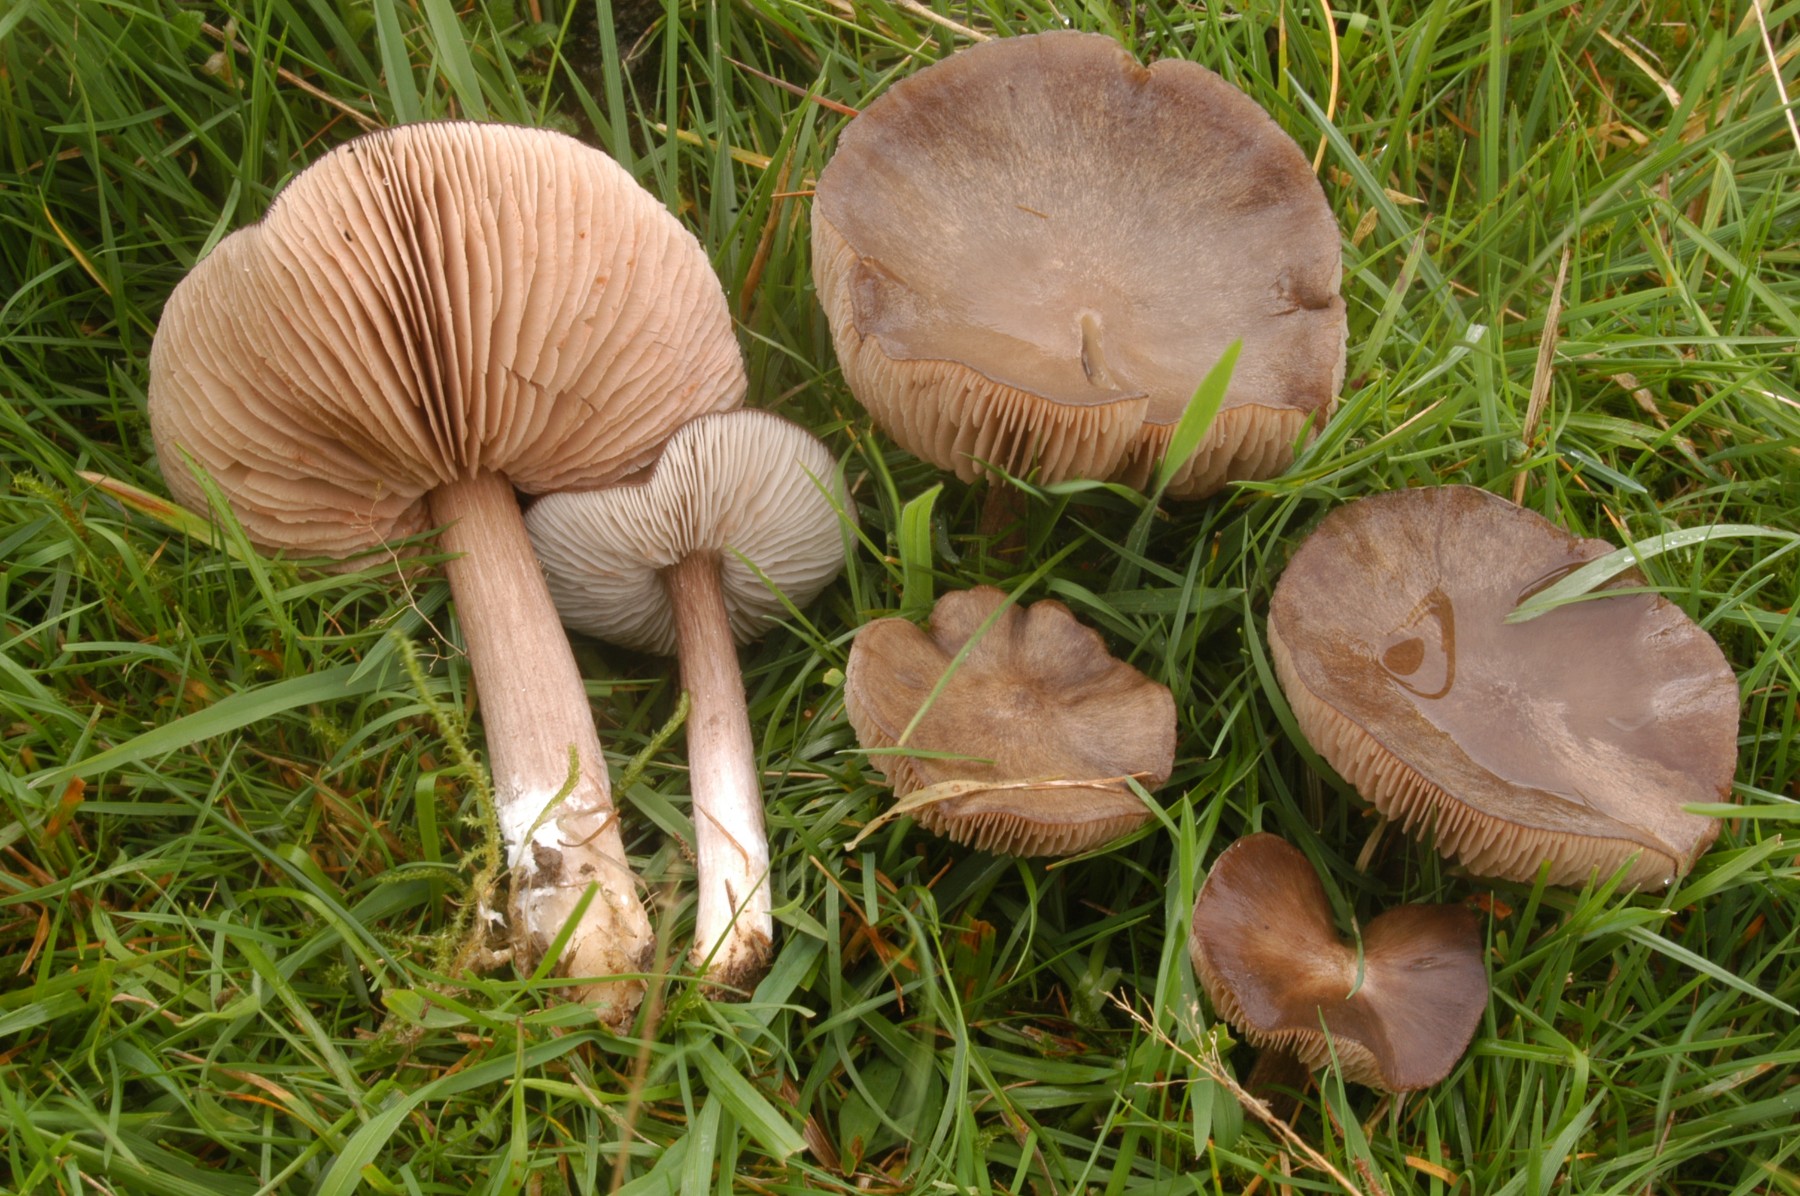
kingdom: Fungi
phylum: Basidiomycota
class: Agaricomycetes
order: Agaricales
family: Entolomataceae
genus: Entoloma
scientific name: Entoloma porphyrophaeum
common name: porfyrbrun rødblad
